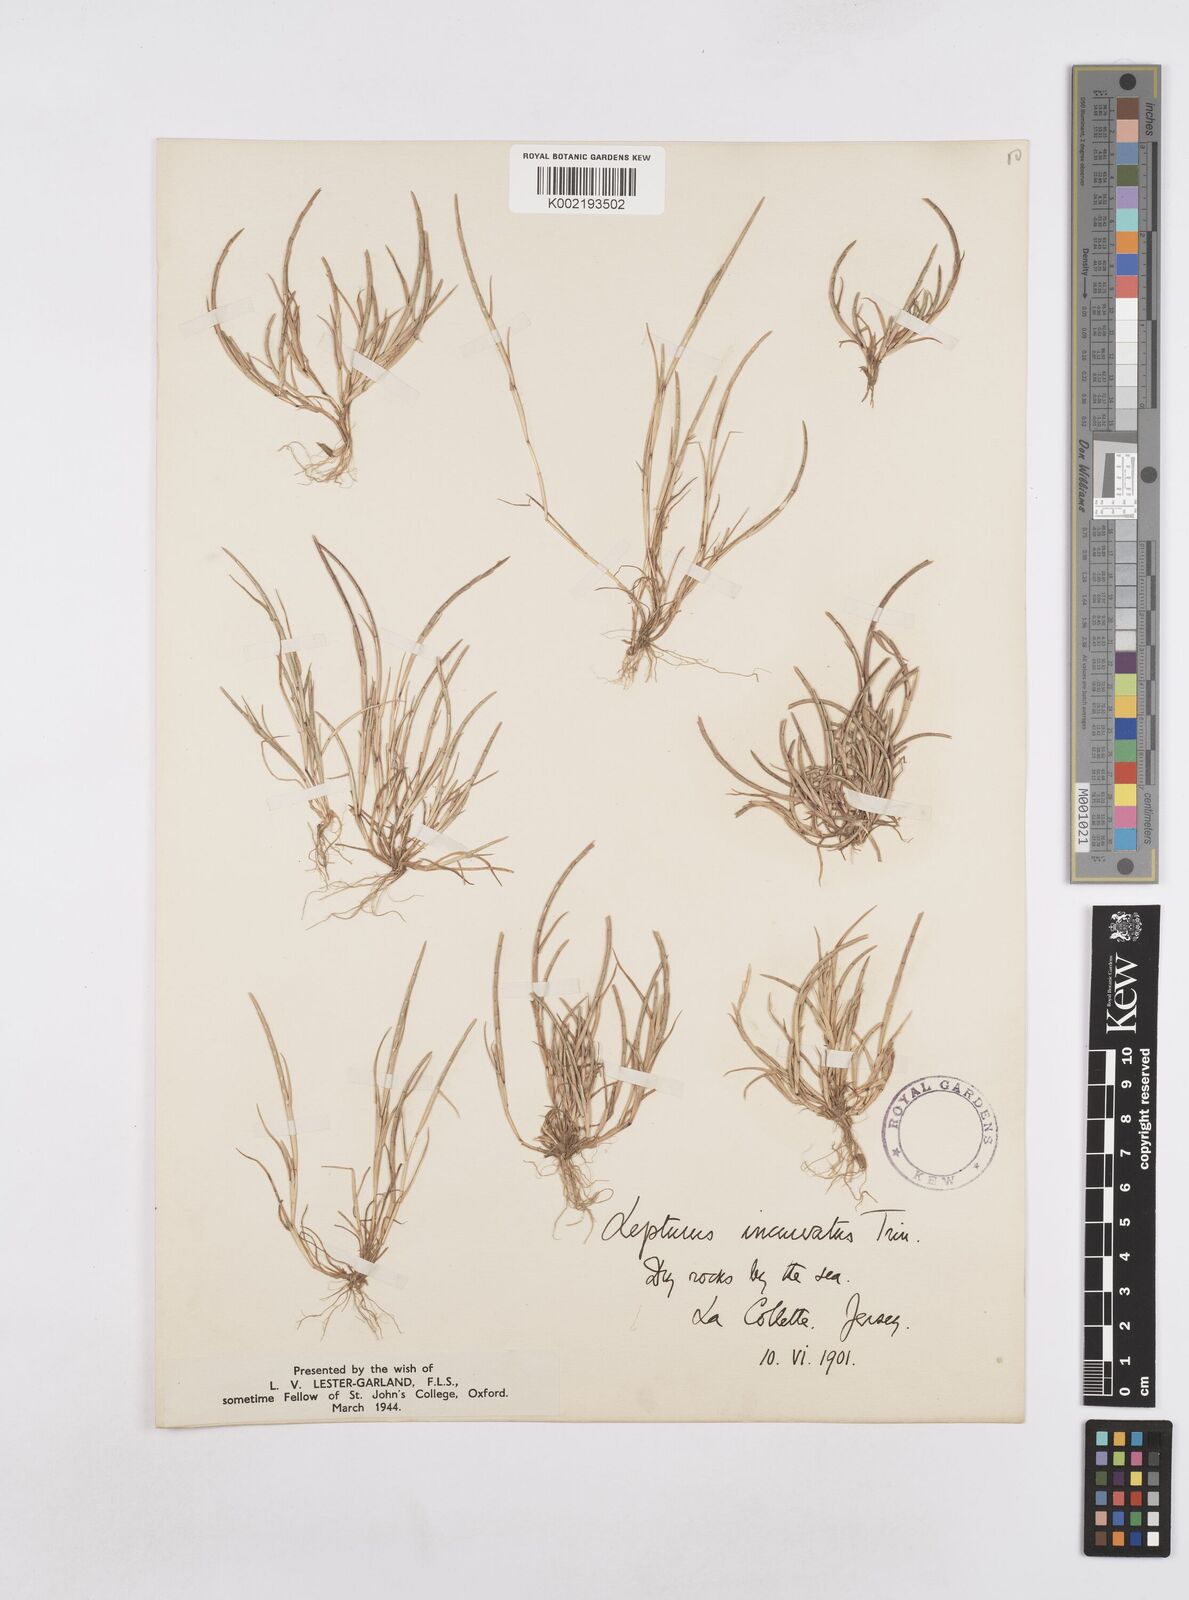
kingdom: Plantae
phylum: Tracheophyta
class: Liliopsida
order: Poales
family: Poaceae
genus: Parapholis
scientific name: Parapholis incurva
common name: Curved sicklegrass
